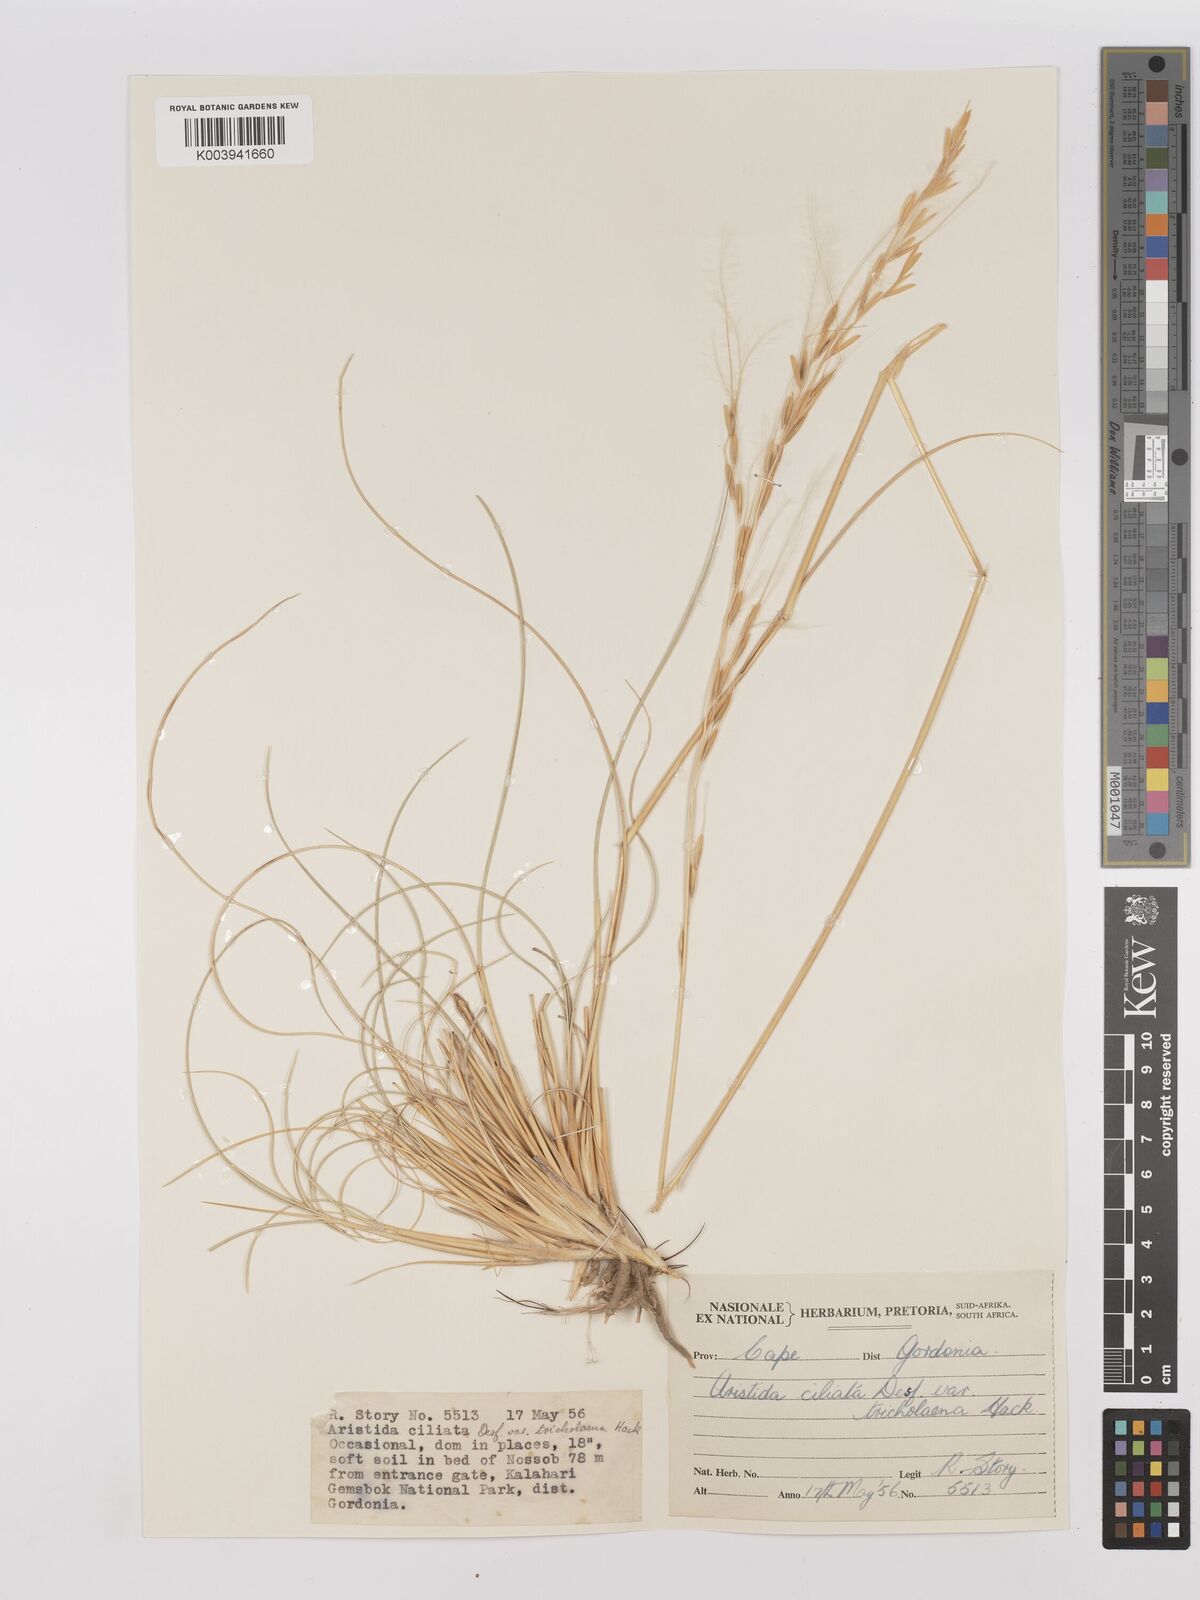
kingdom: Plantae
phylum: Tracheophyta
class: Liliopsida
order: Poales
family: Poaceae
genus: Stipagrostis
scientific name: Stipagrostis ciliata
